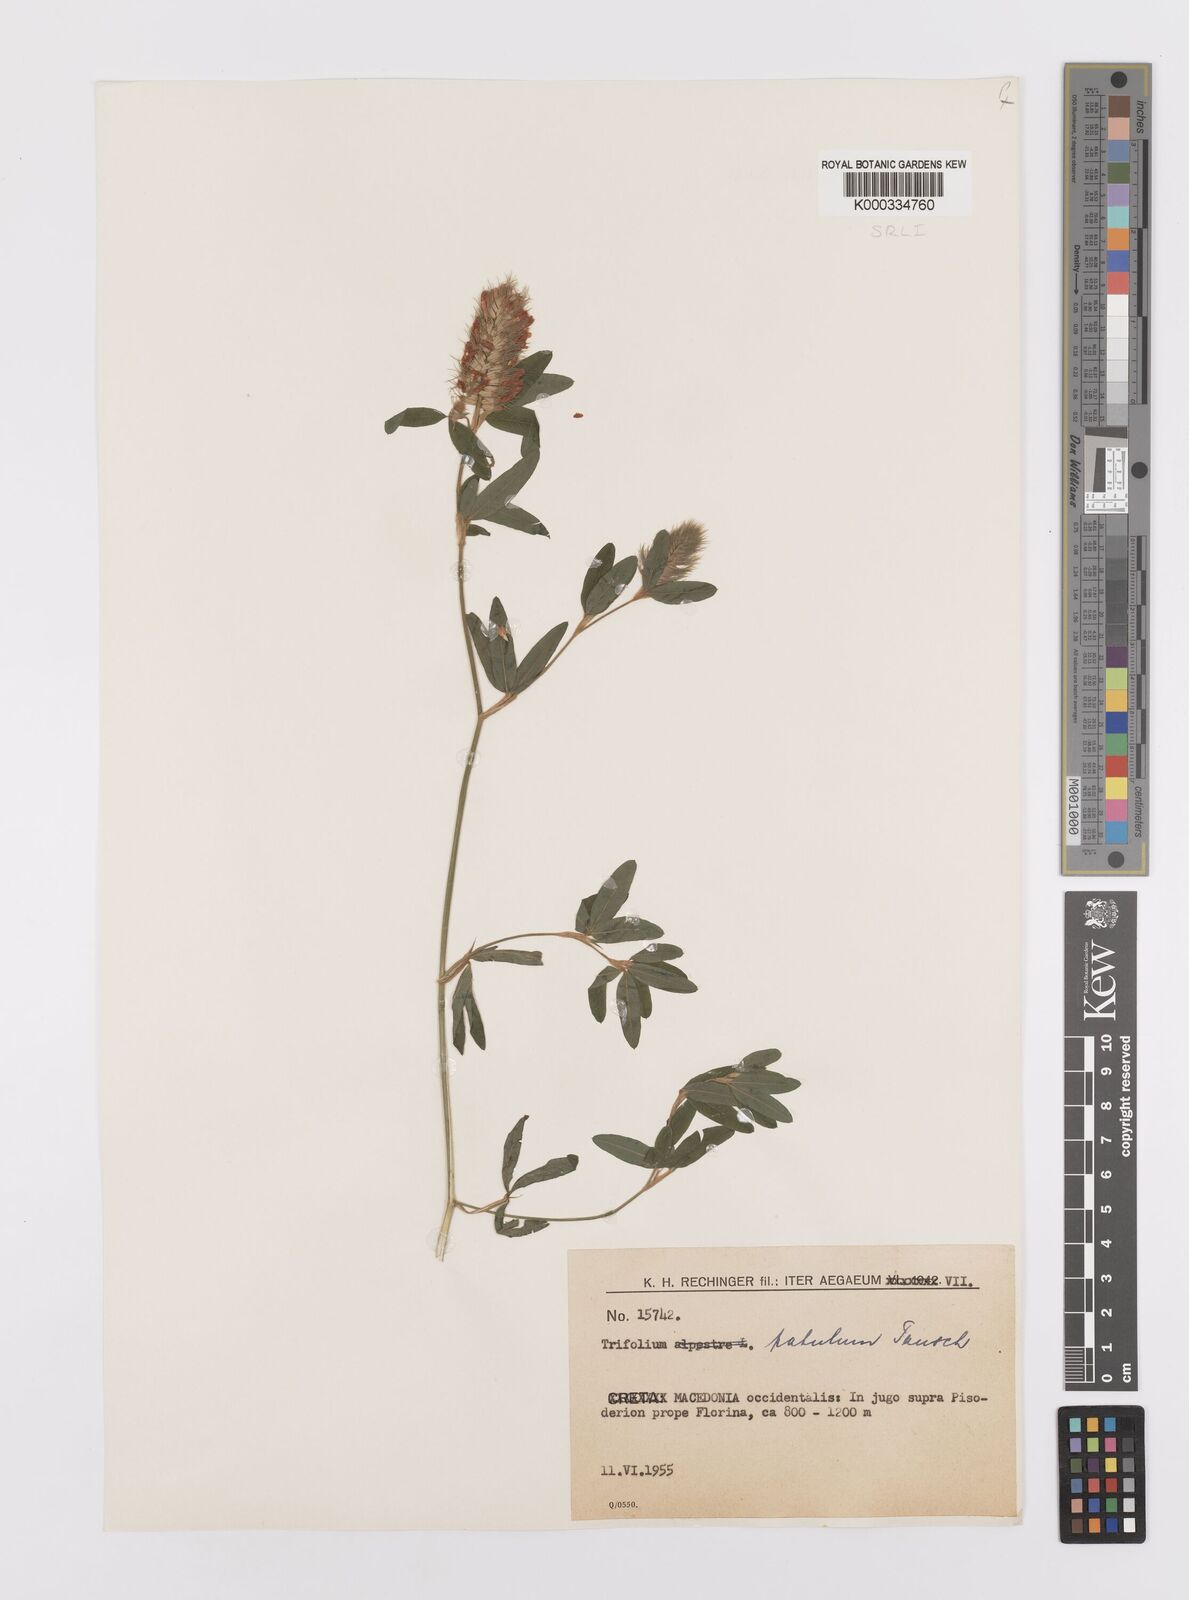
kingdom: Plantae
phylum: Tracheophyta
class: Magnoliopsida
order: Fabales
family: Fabaceae
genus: Trifolium
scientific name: Trifolium patulum
